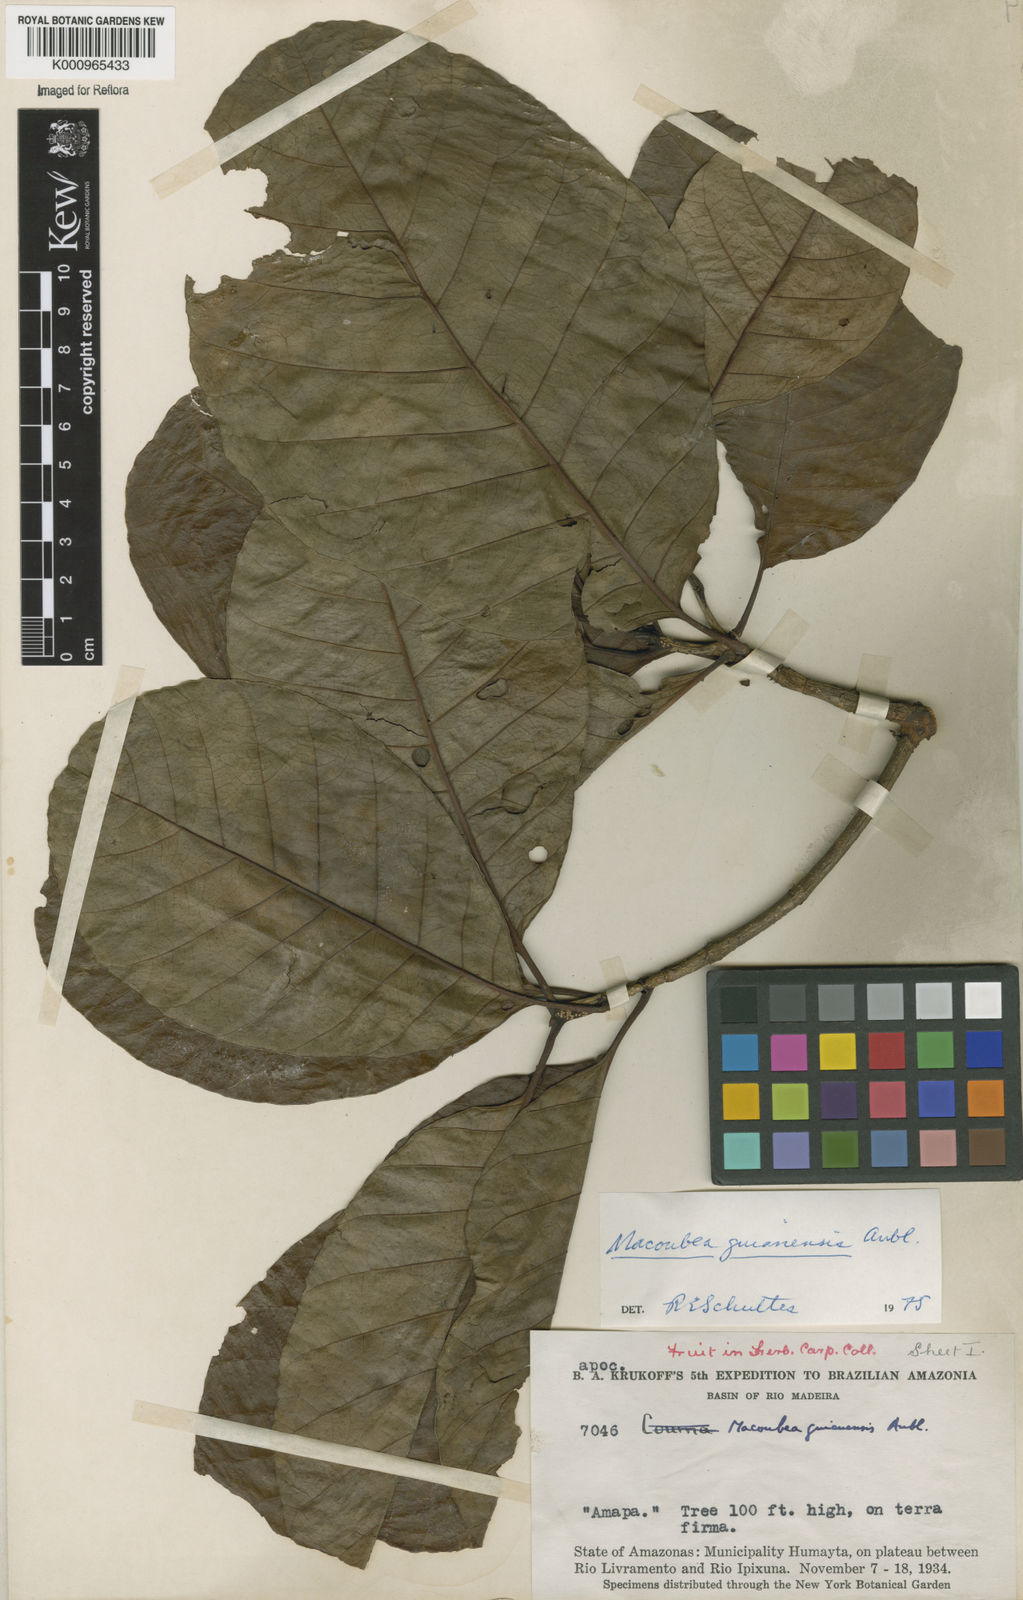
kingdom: Plantae
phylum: Tracheophyta
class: Magnoliopsida
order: Gentianales
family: Apocynaceae
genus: Macoubea
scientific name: Macoubea guianensis
